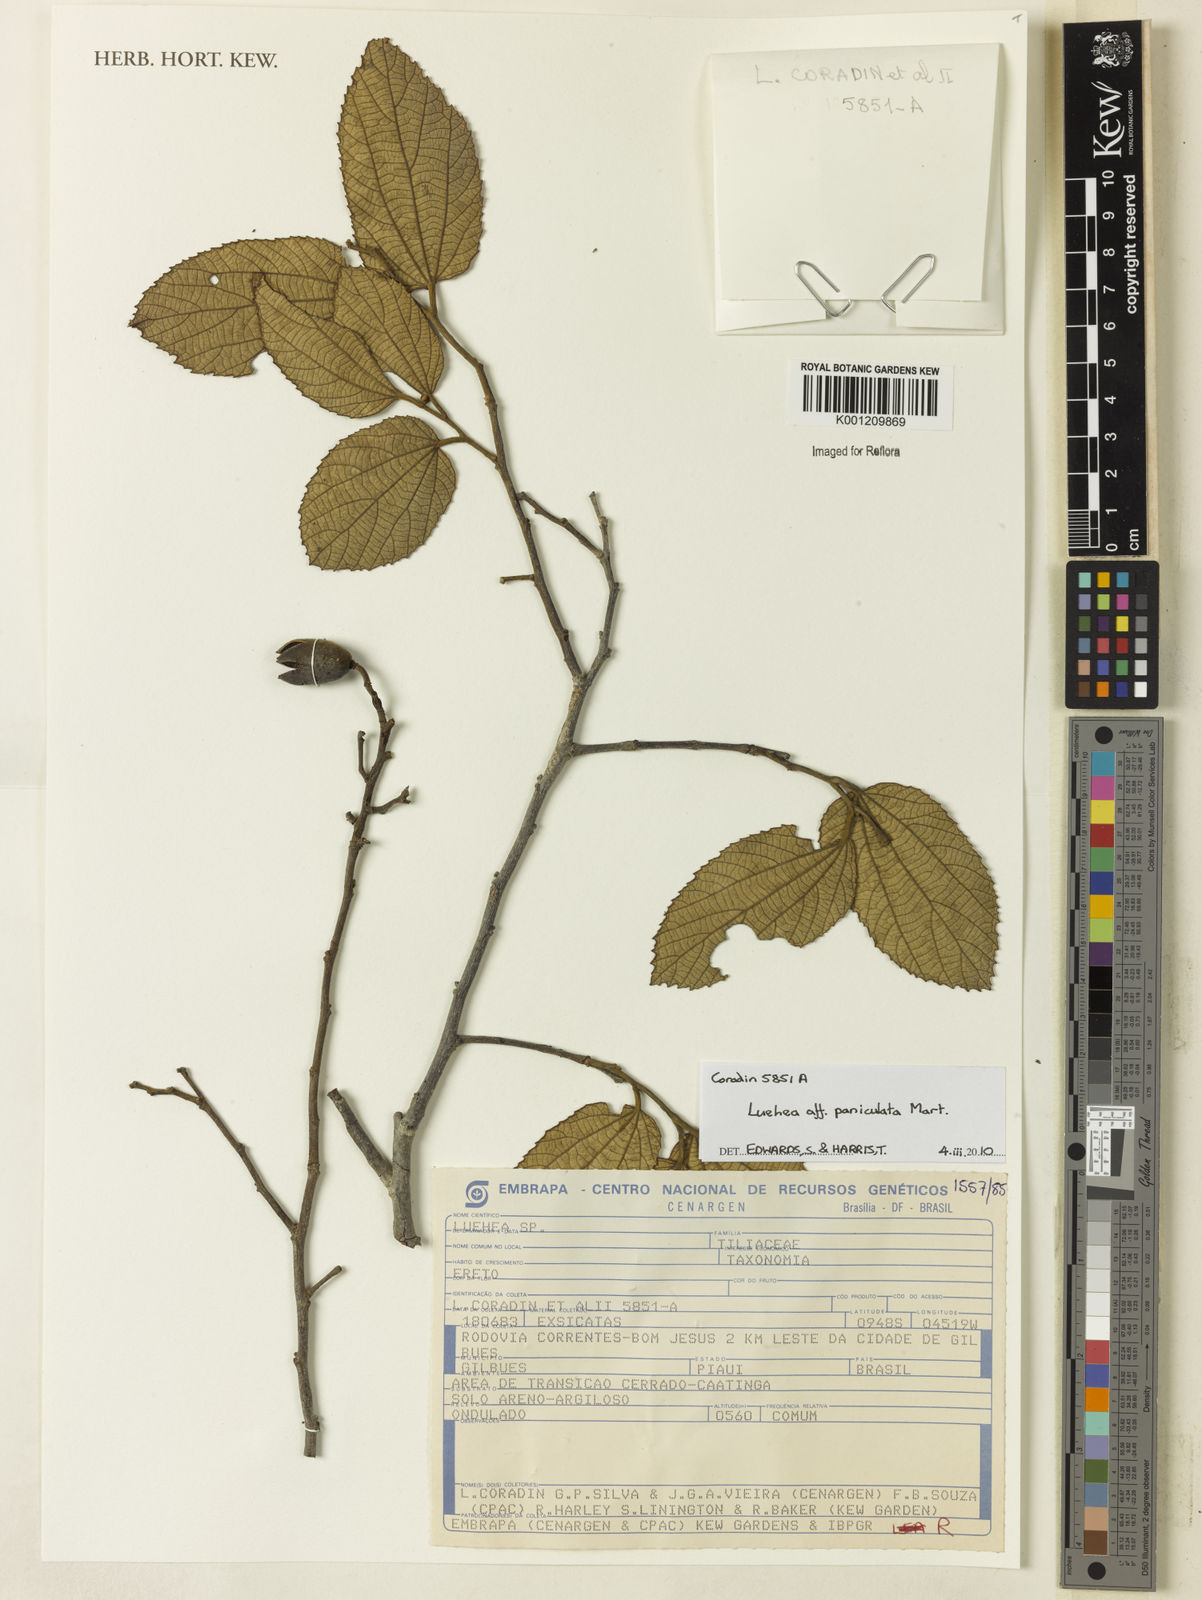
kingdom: Plantae
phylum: Tracheophyta
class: Magnoliopsida
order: Malvales
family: Malvaceae
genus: Luehea
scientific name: Luehea paniculata
